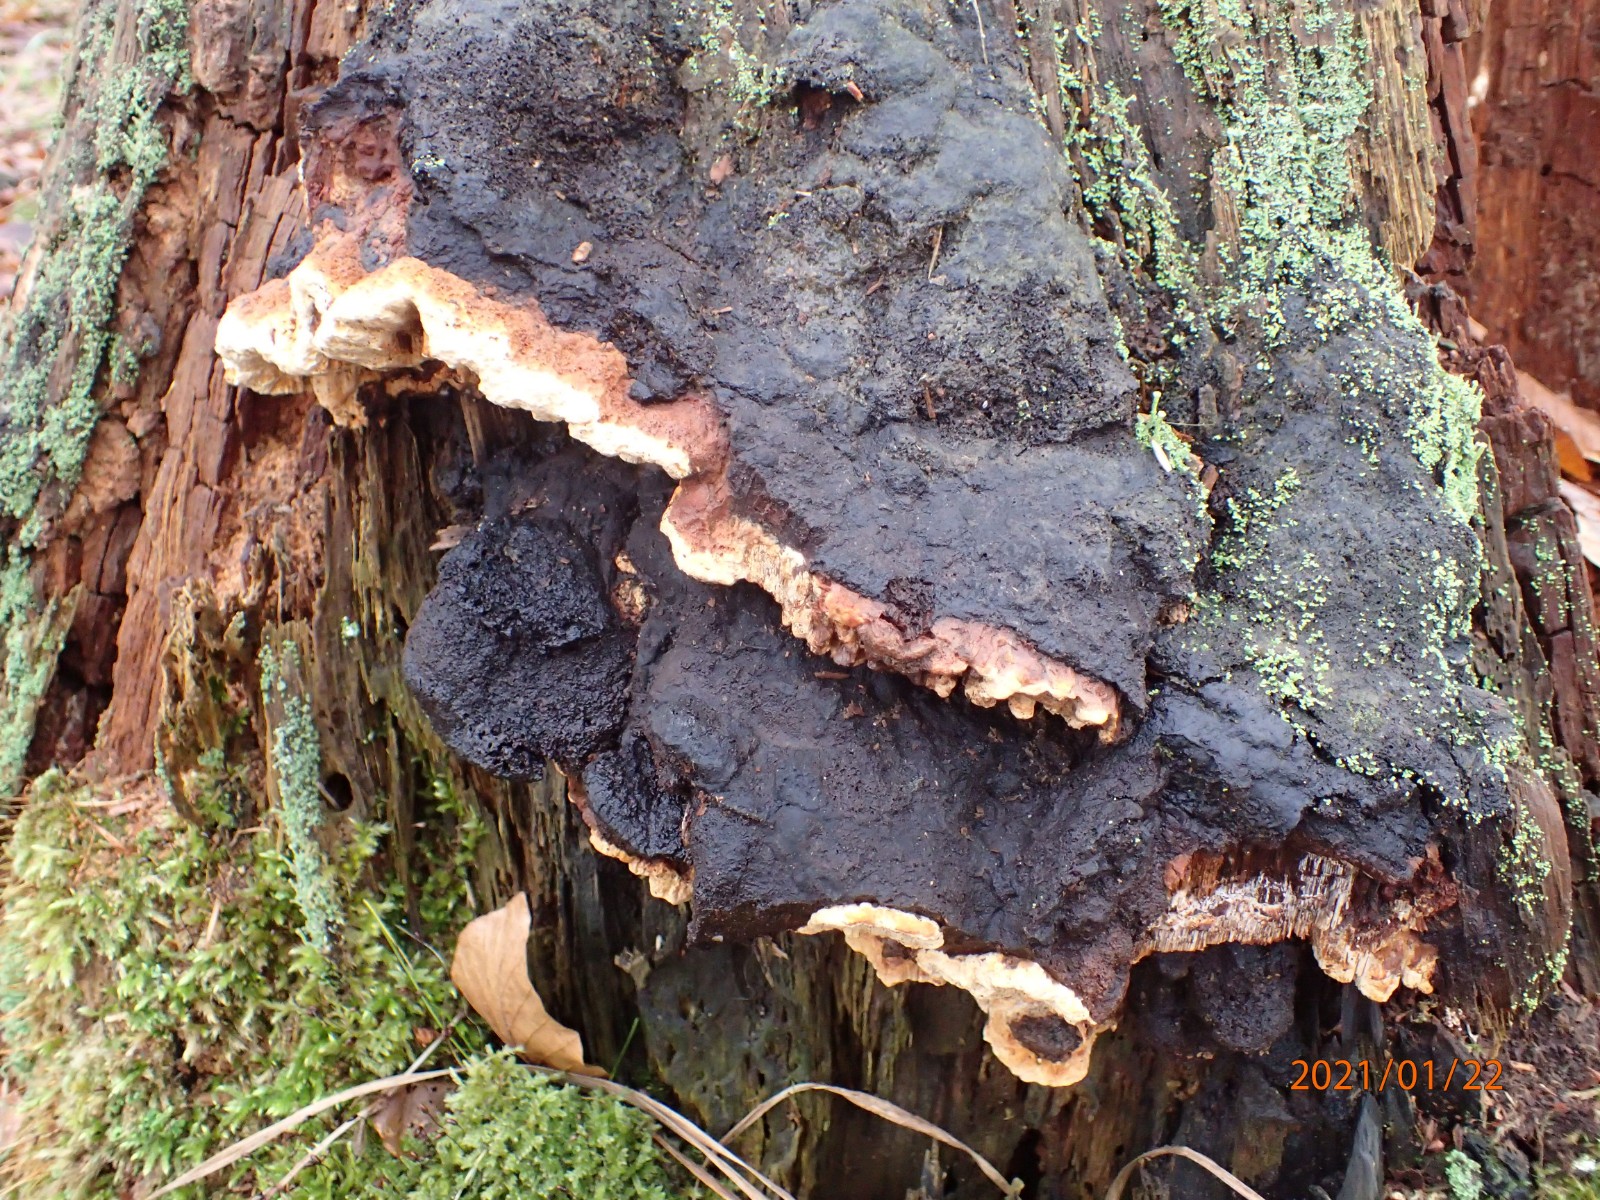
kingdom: Fungi
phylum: Basidiomycota
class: Agaricomycetes
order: Gloeophyllales
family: Gloeophyllaceae
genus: Gloeophyllum
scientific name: Gloeophyllum odoratum
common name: duftende korkhat
